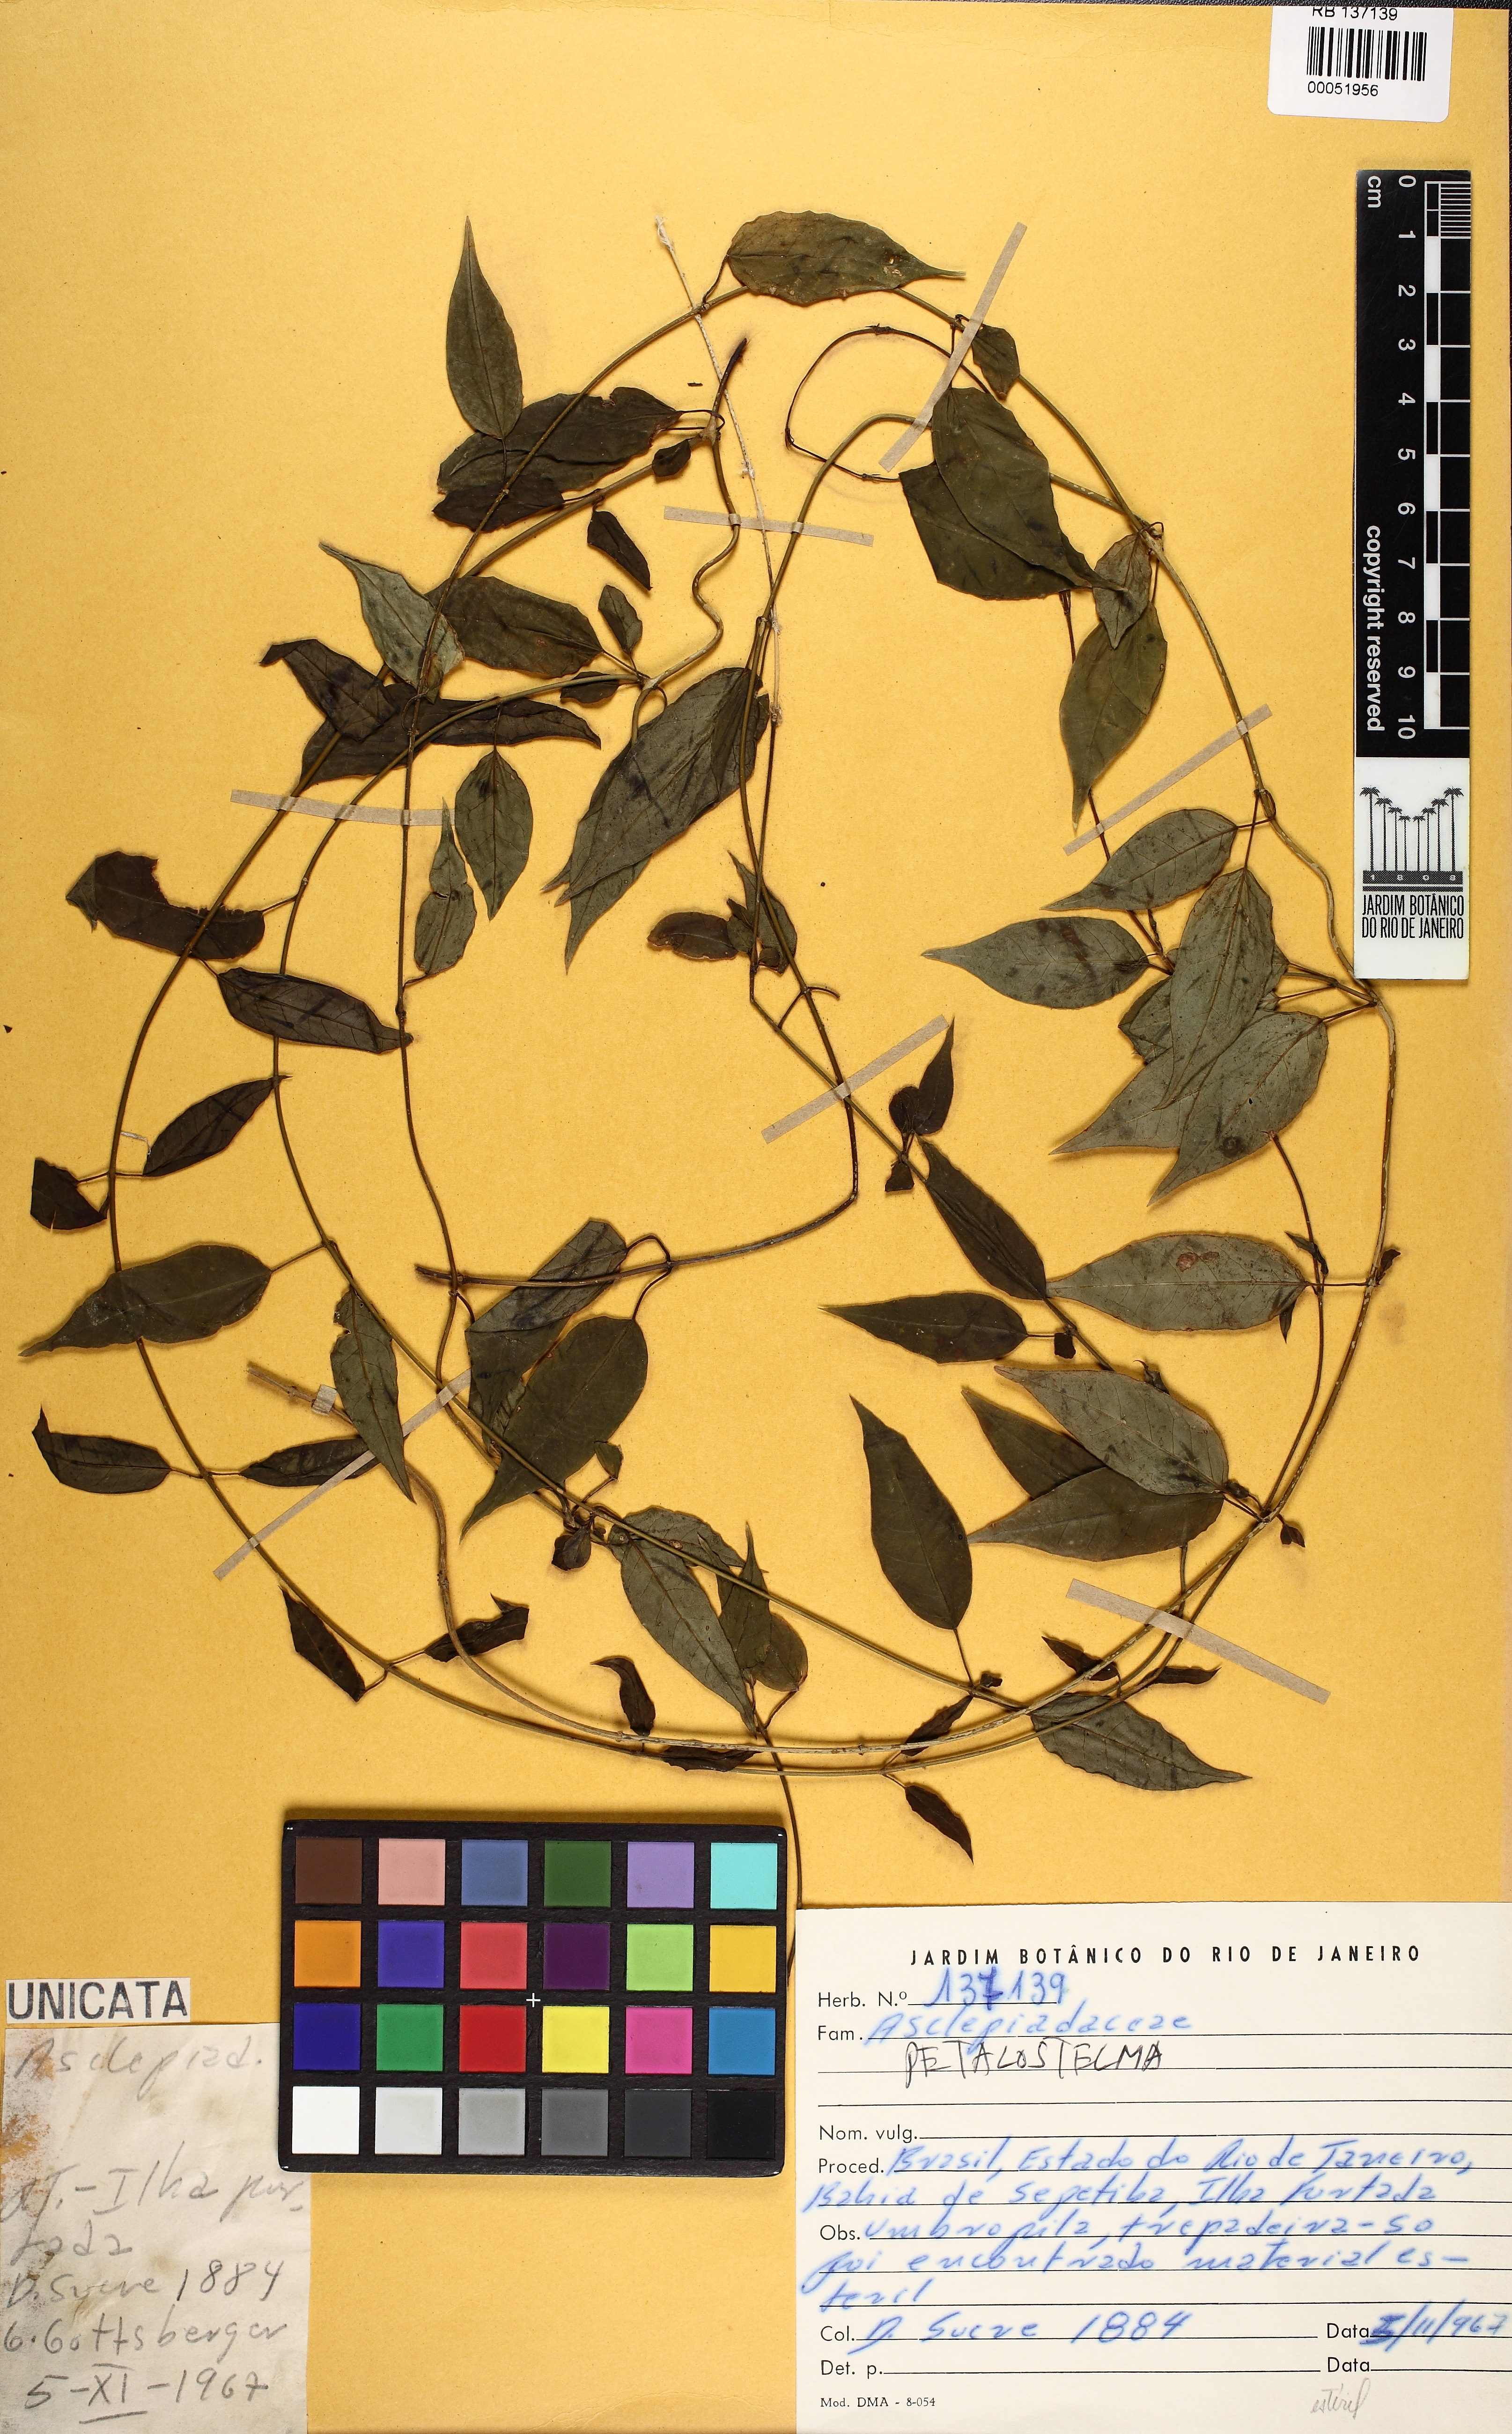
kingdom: Plantae
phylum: Tracheophyta
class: Magnoliopsida
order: Gentianales
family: Apocynaceae
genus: Petalostelma
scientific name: Petalostelma
